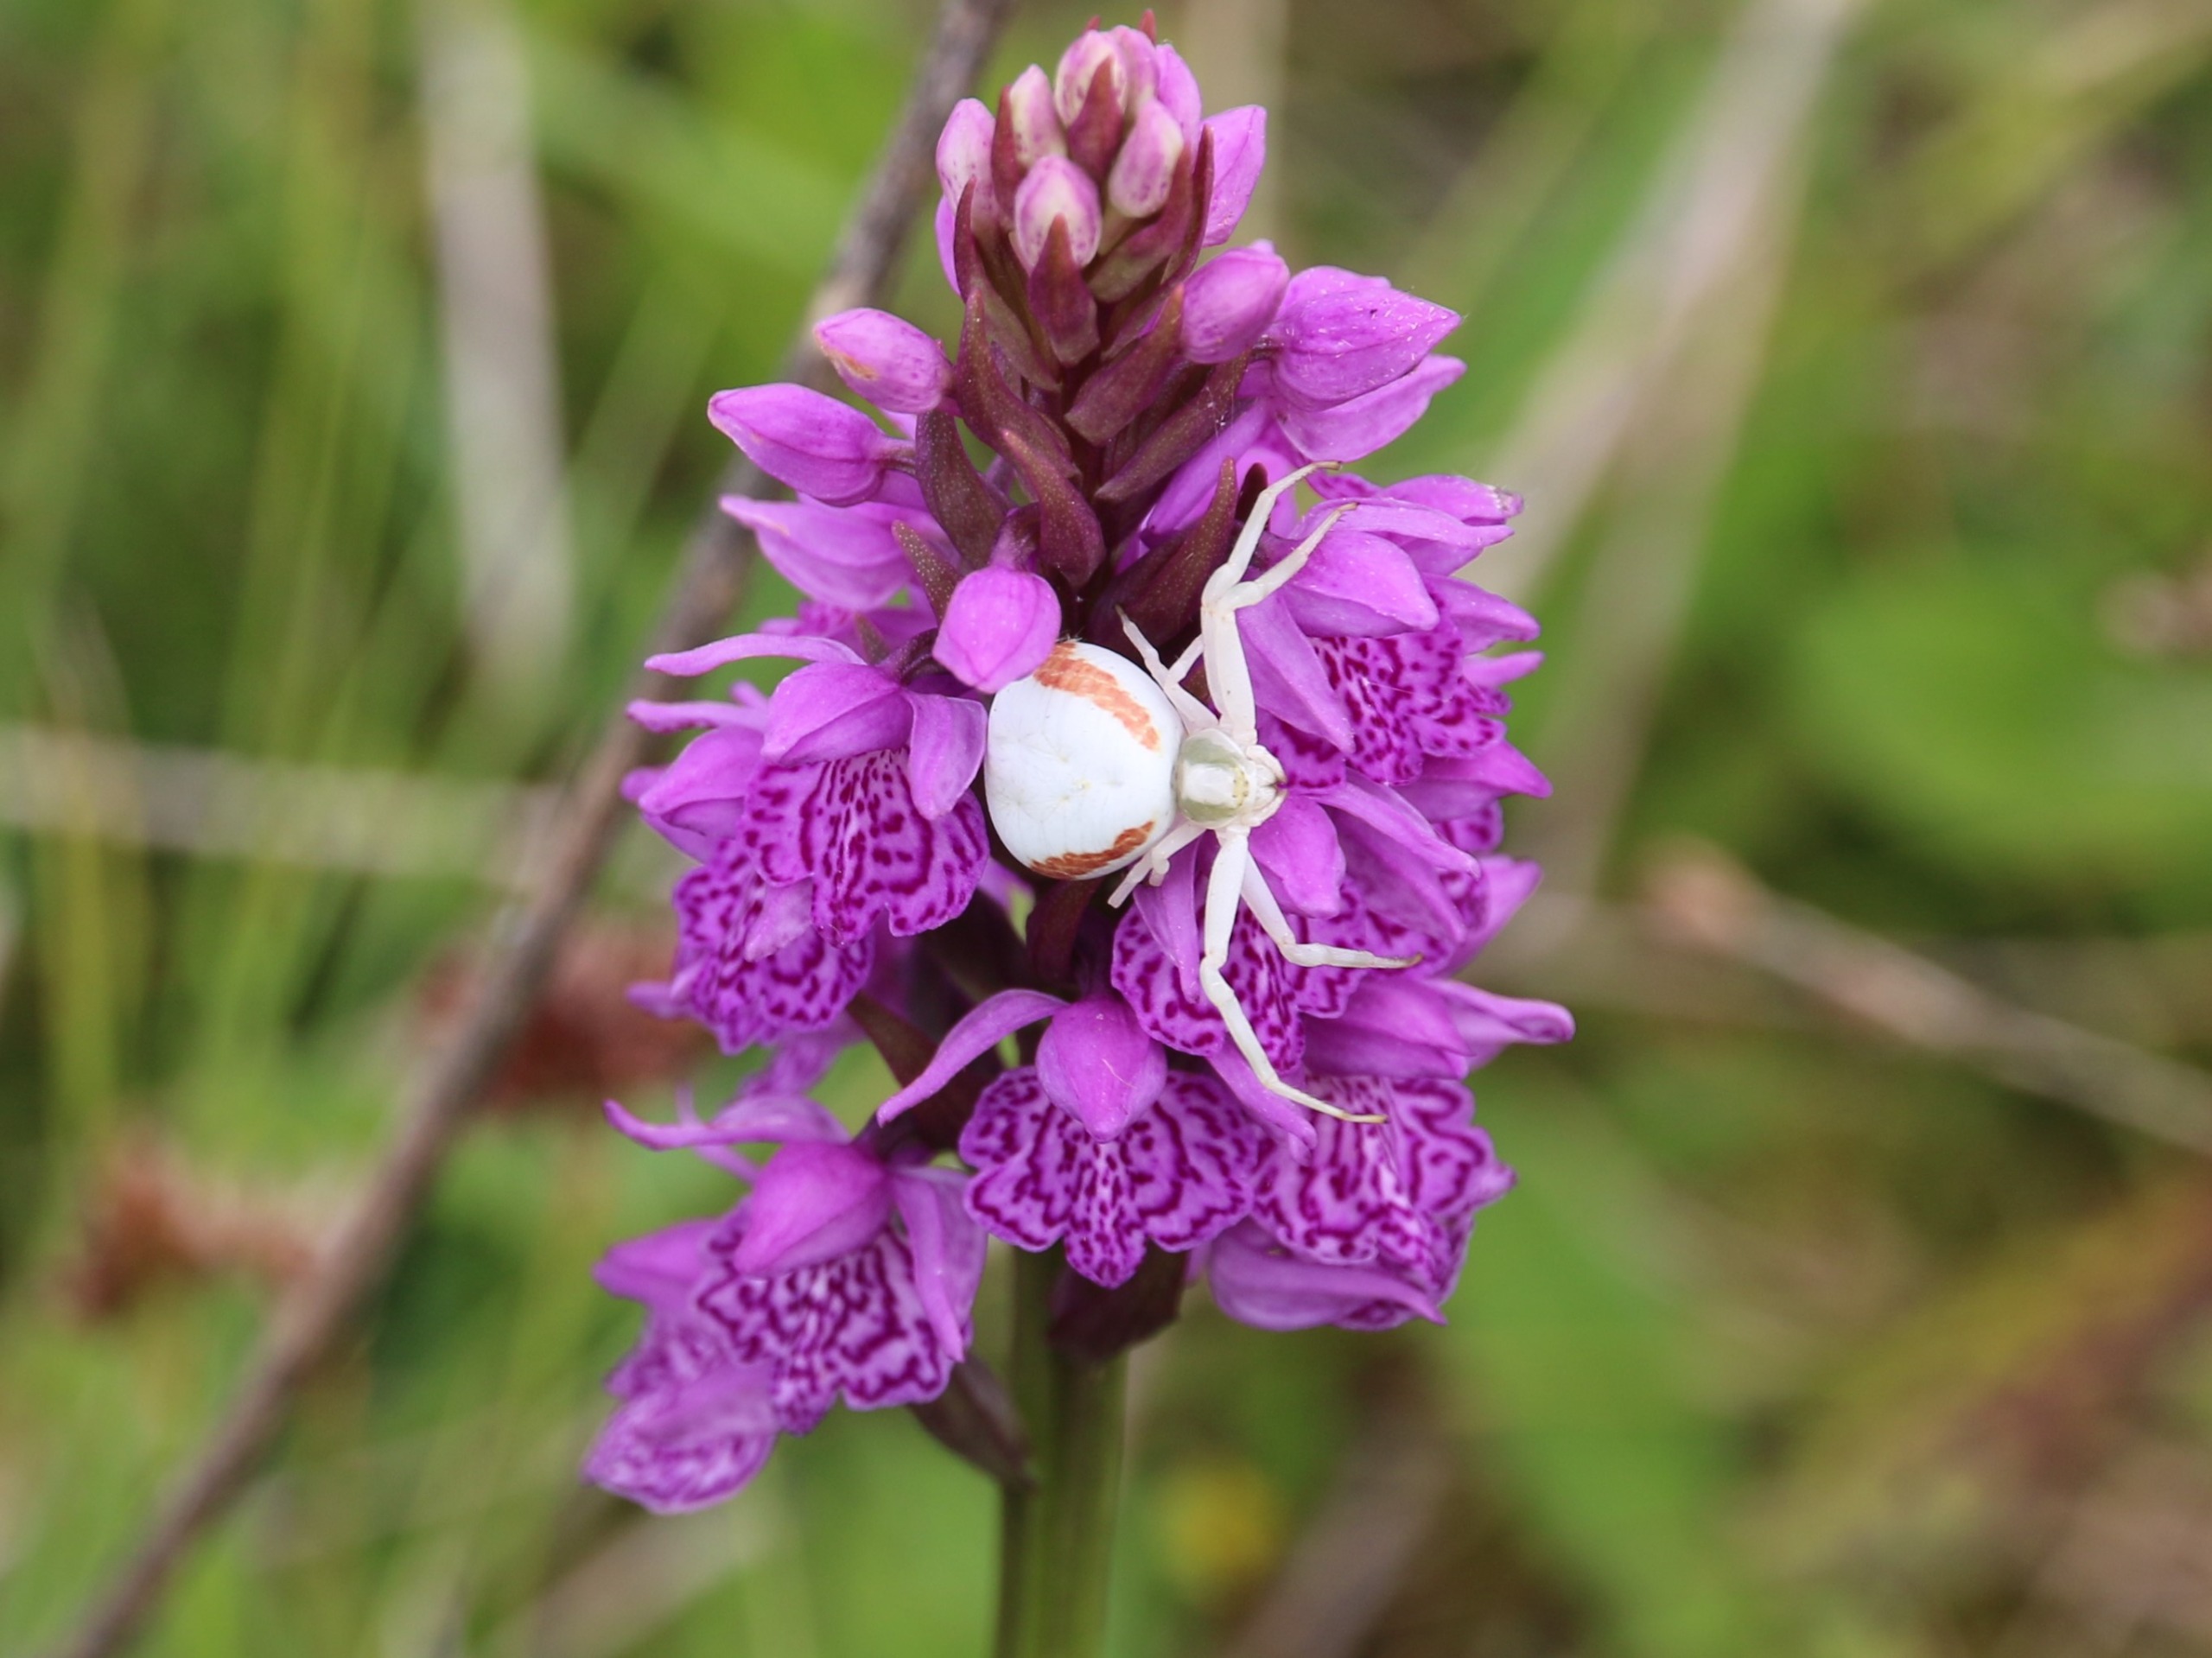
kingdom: Animalia
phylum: Arthropoda
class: Arachnida
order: Araneae
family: Thomisidae
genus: Misumena
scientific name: Misumena vatia
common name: Kamæleonedderkop
